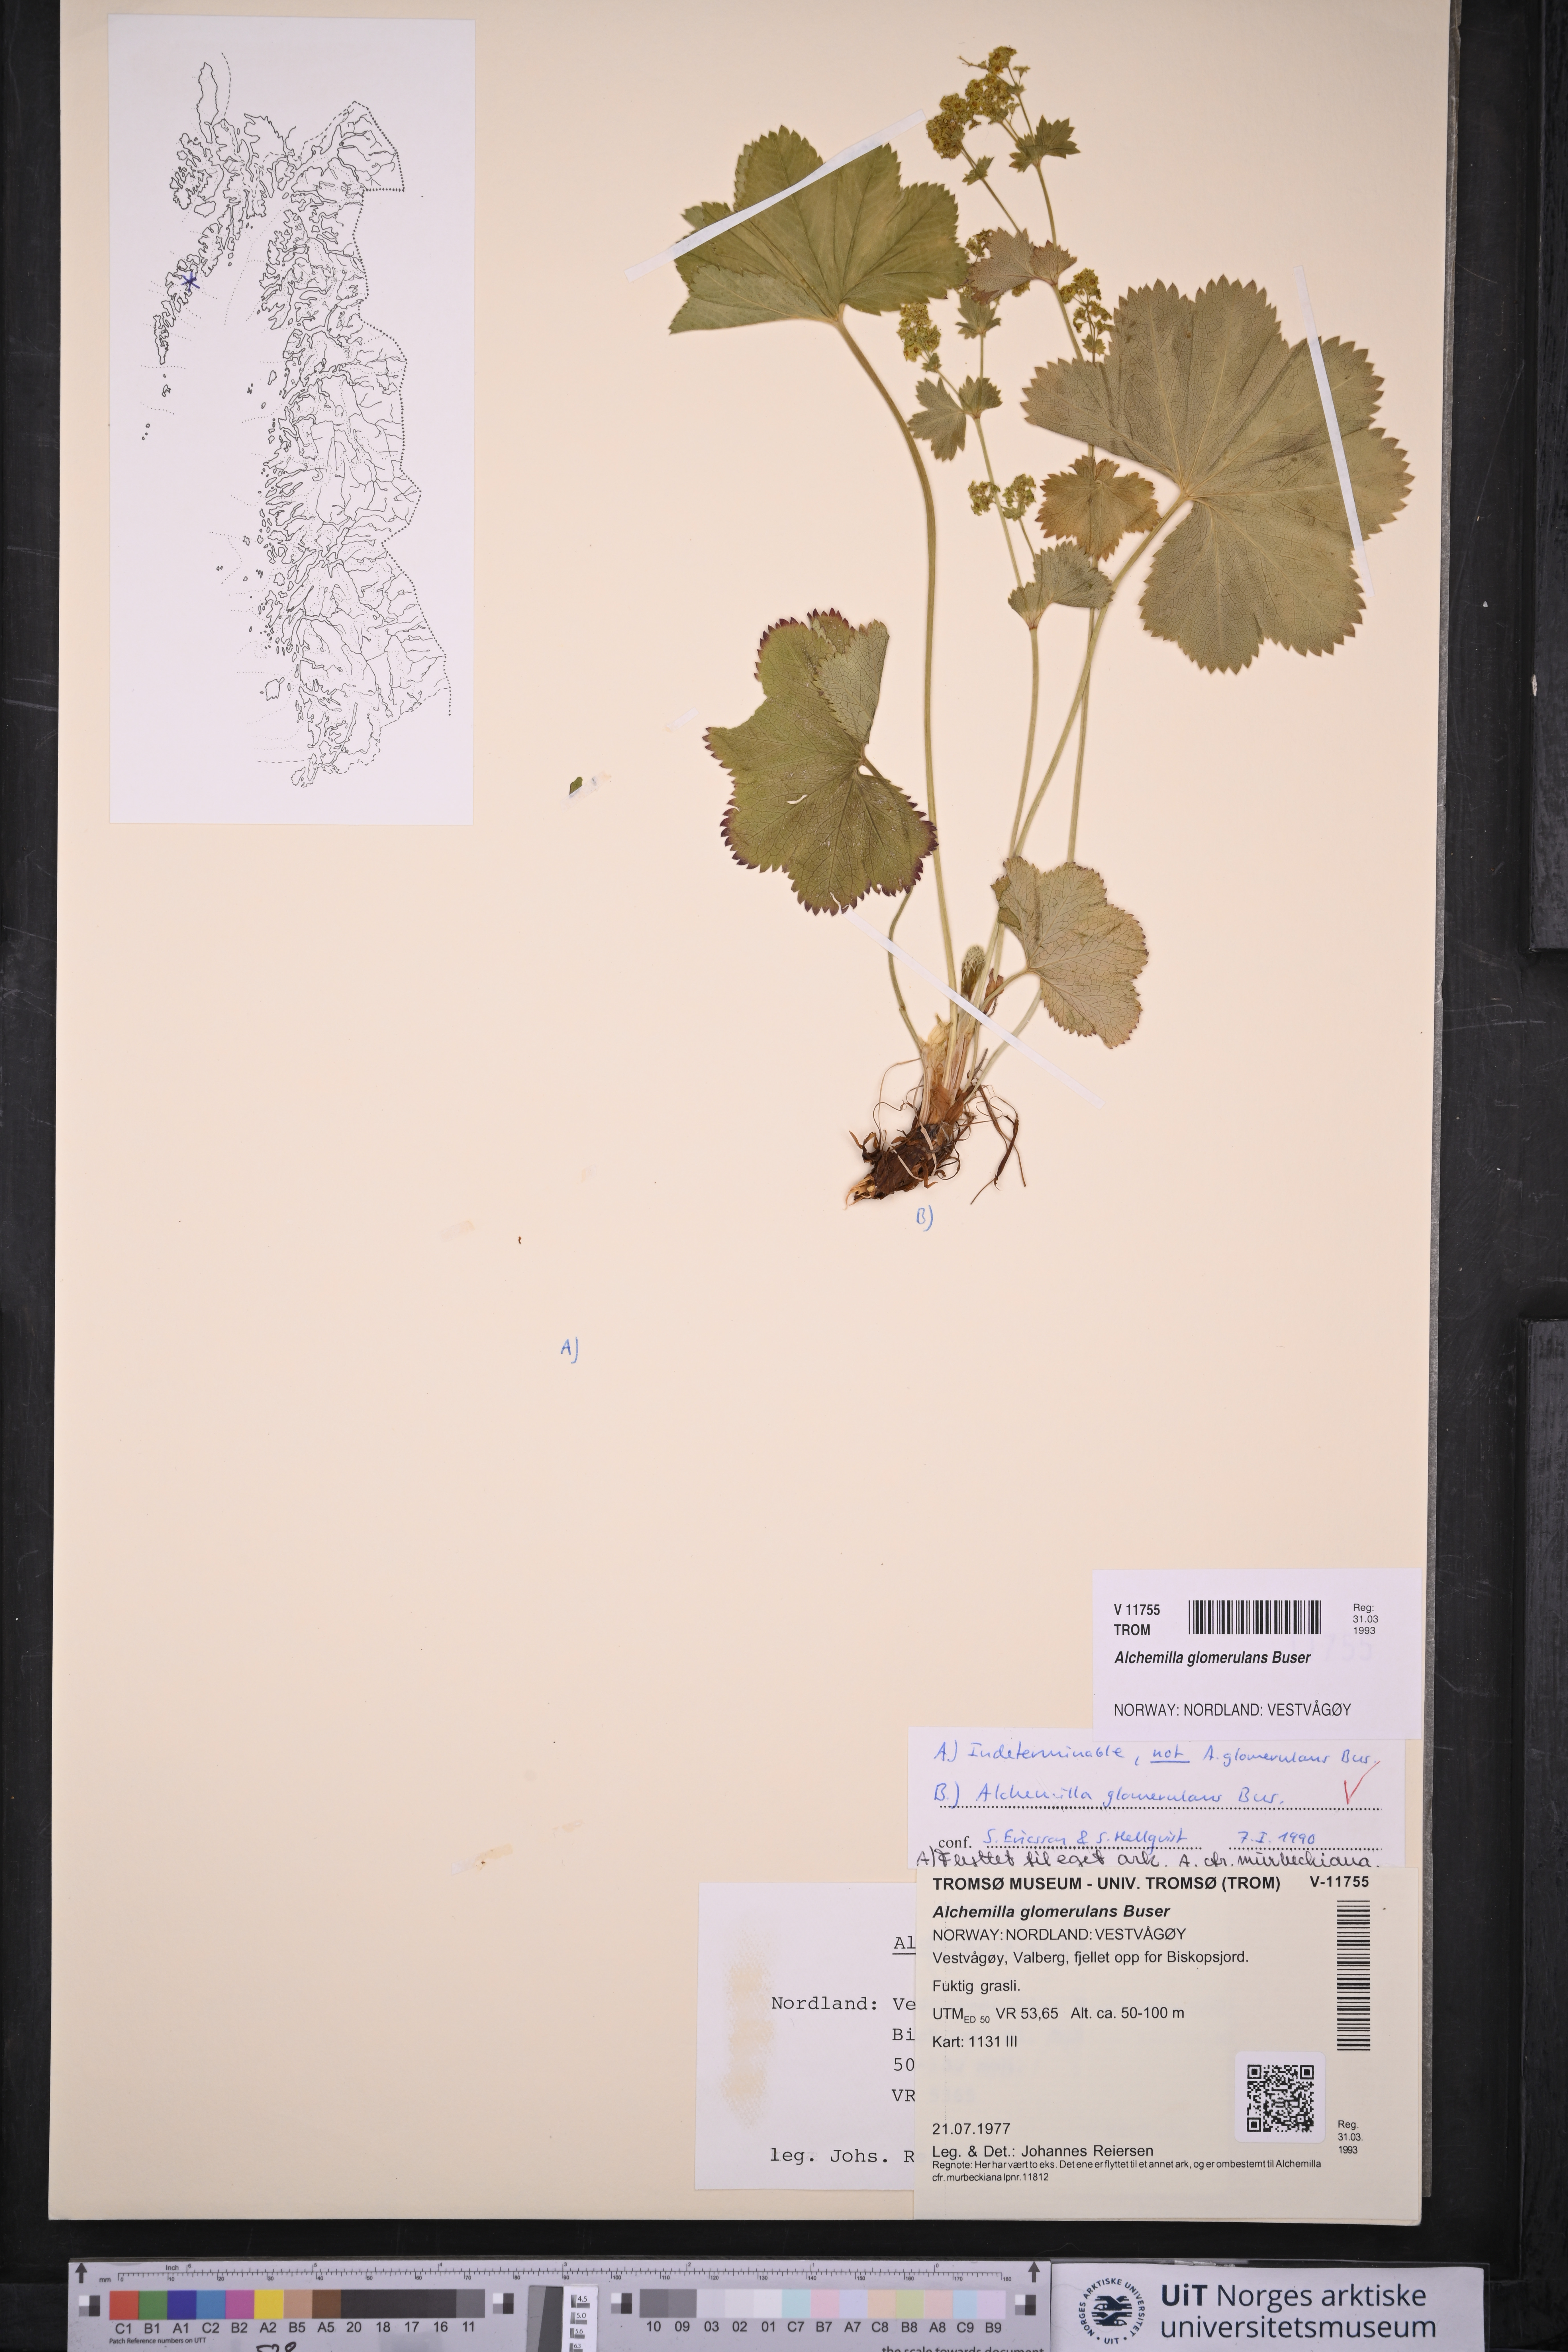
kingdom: Plantae
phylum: Tracheophyta
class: Magnoliopsida
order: Rosales
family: Rosaceae
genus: Alchemilla
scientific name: Alchemilla glomerulans
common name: Clustered lady's mantle
